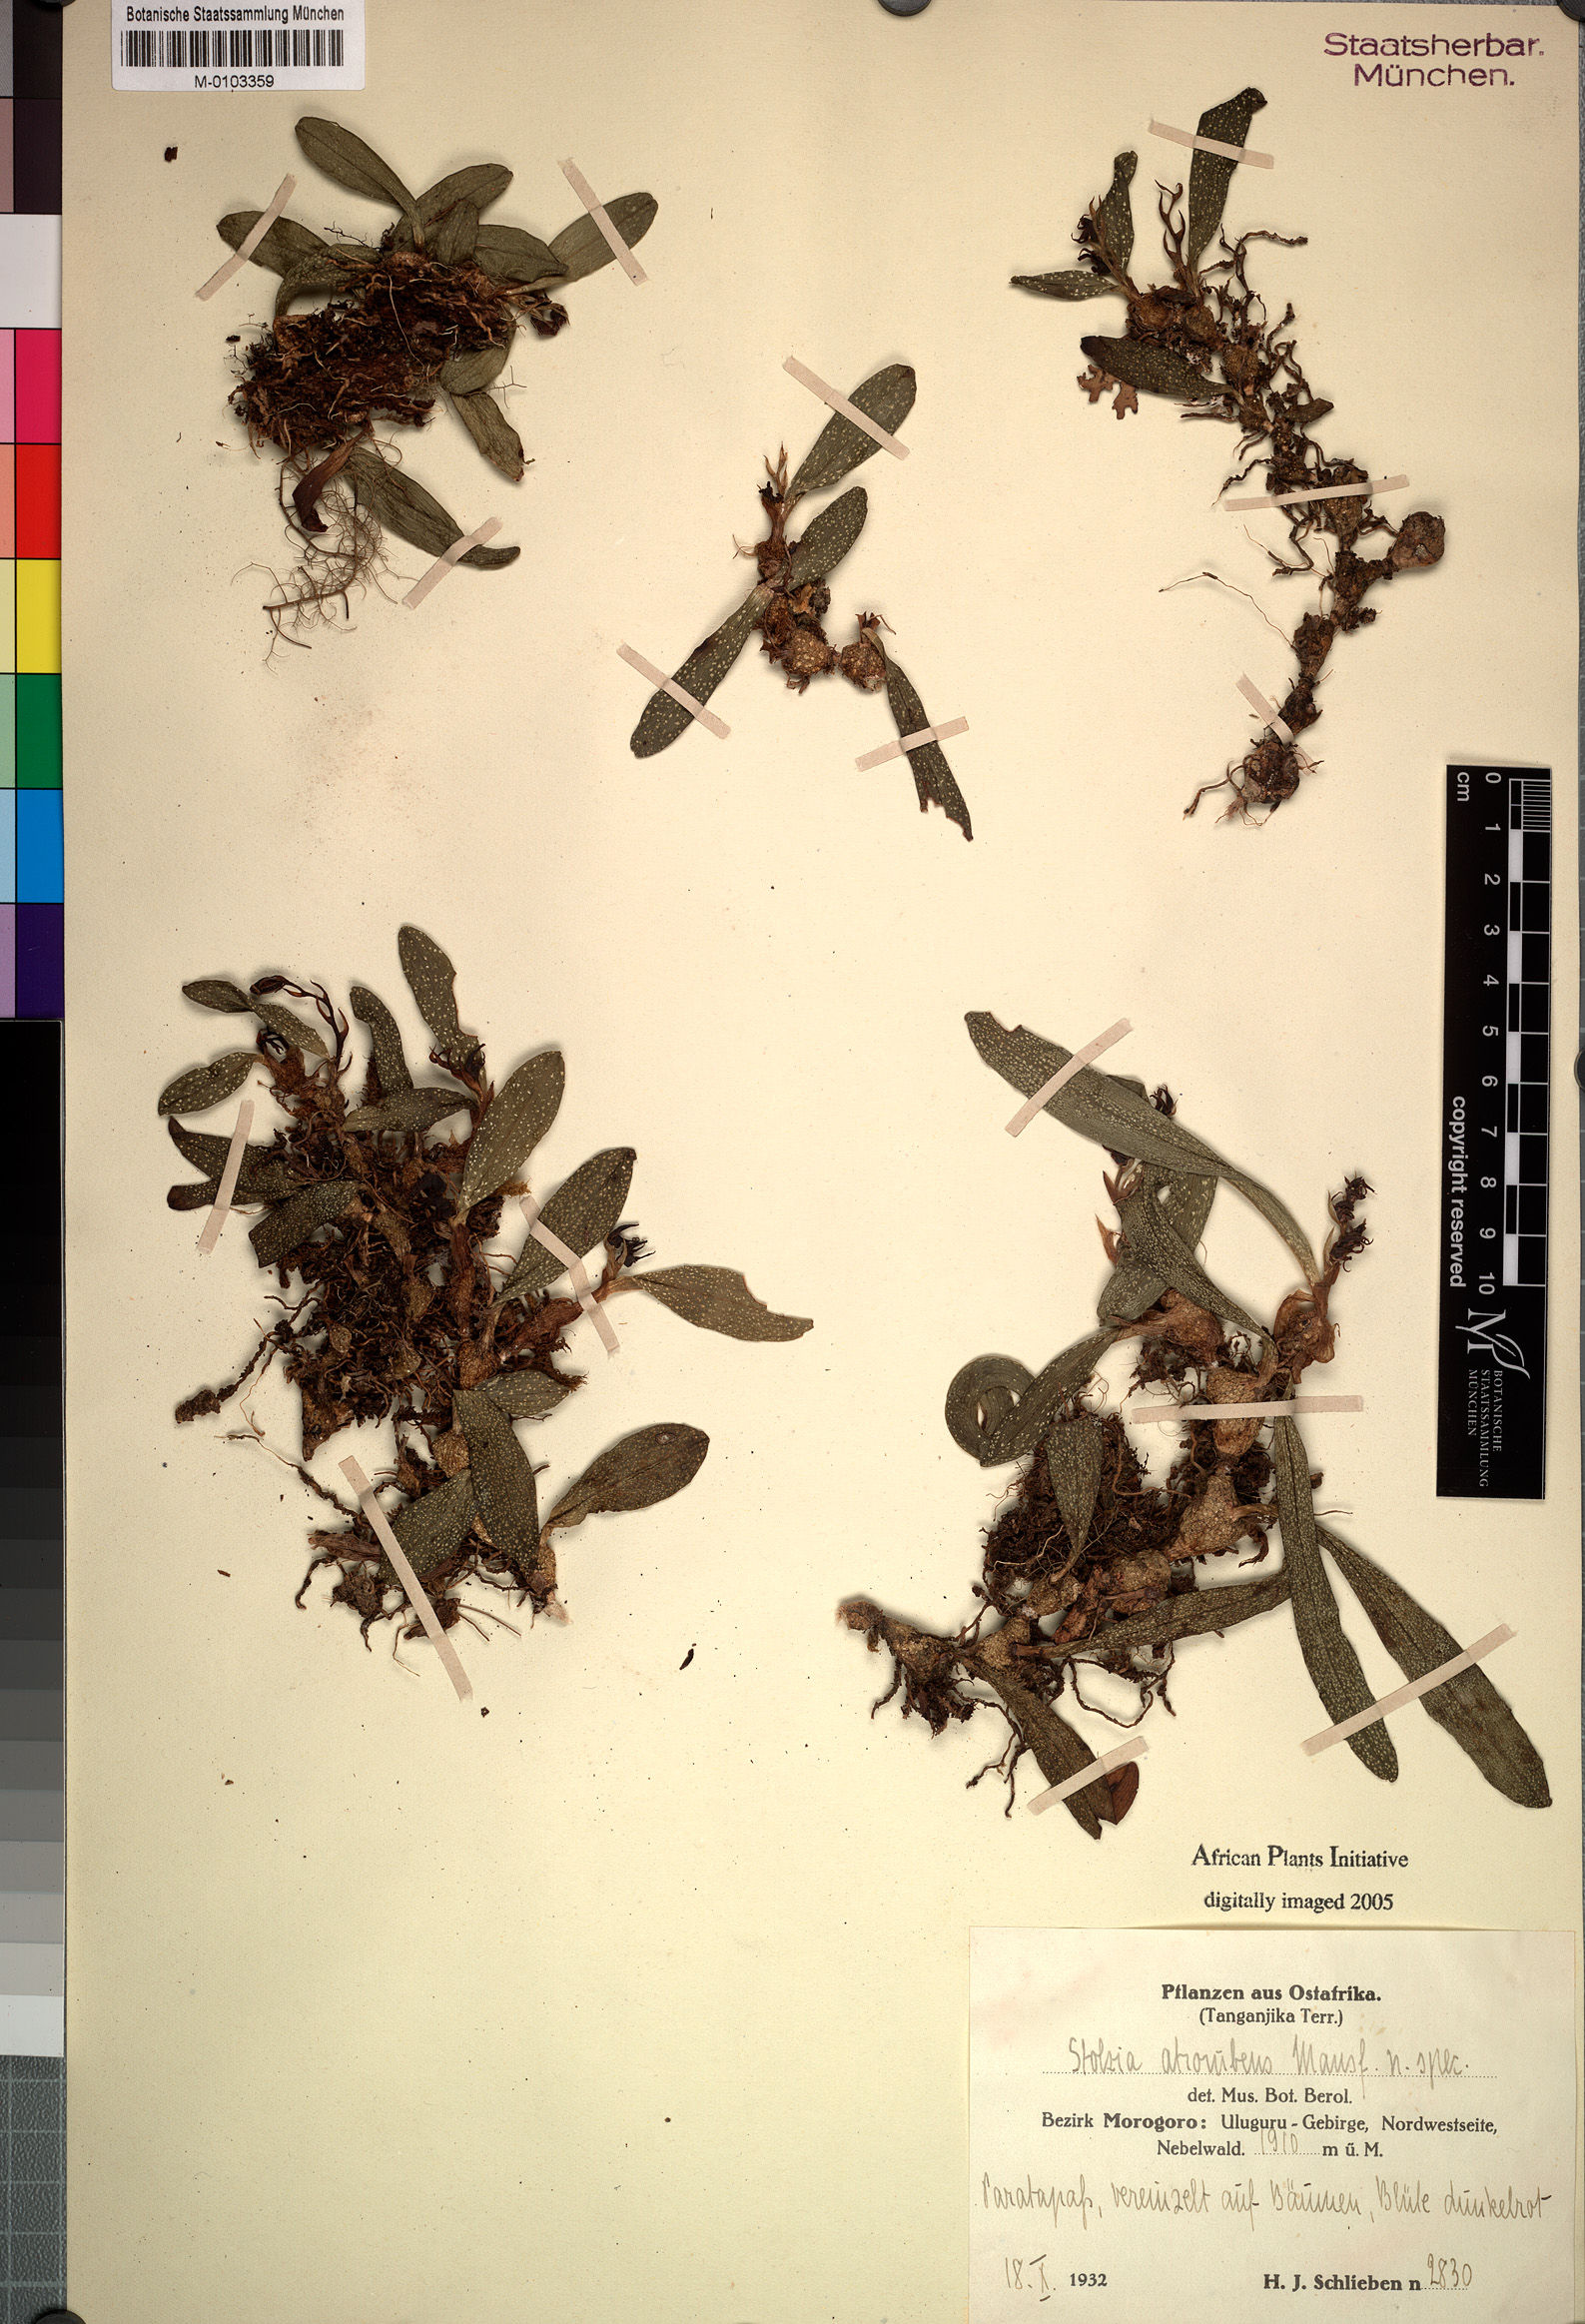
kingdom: Plantae
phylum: Tracheophyta
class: Liliopsida
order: Asparagales
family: Orchidaceae
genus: Porpax
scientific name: Porpax atrorubra
